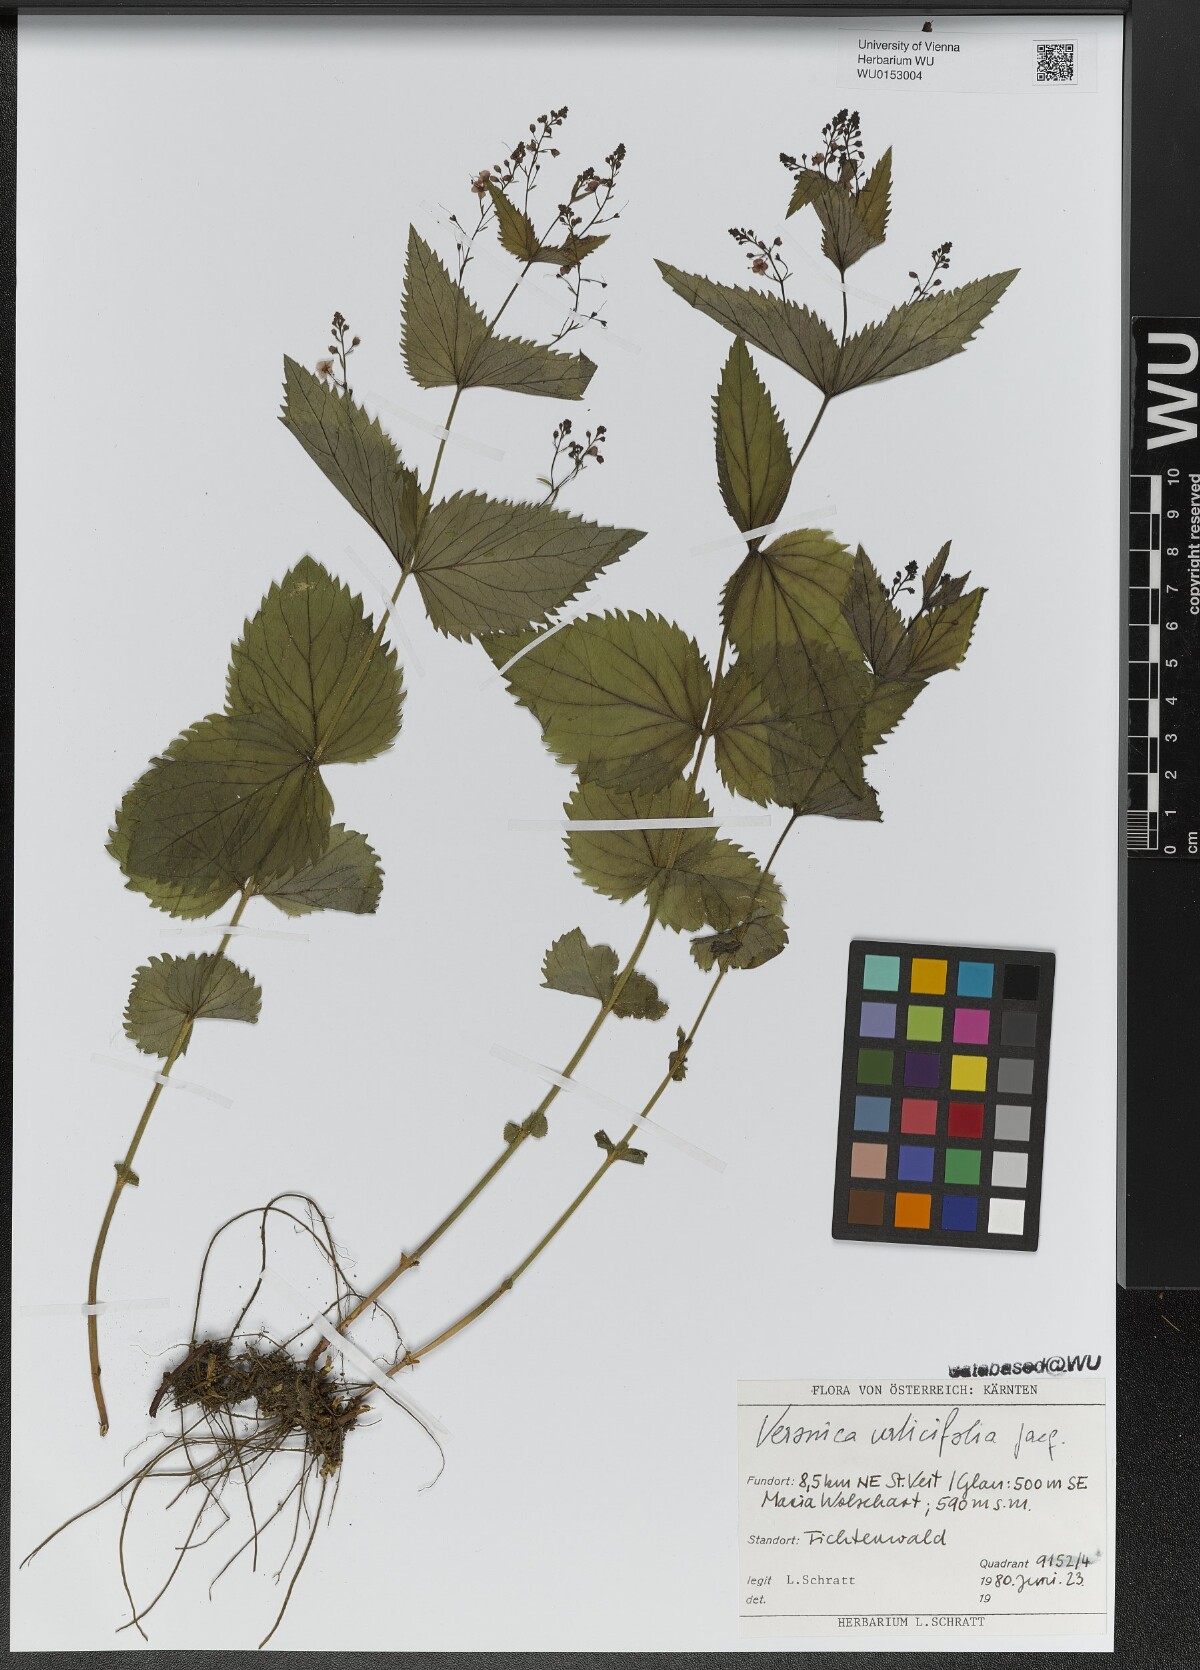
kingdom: Plantae
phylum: Tracheophyta
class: Magnoliopsida
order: Lamiales
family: Plantaginaceae
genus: Veronica
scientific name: Veronica urticifolia
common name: Nettle-leaf speedwell
